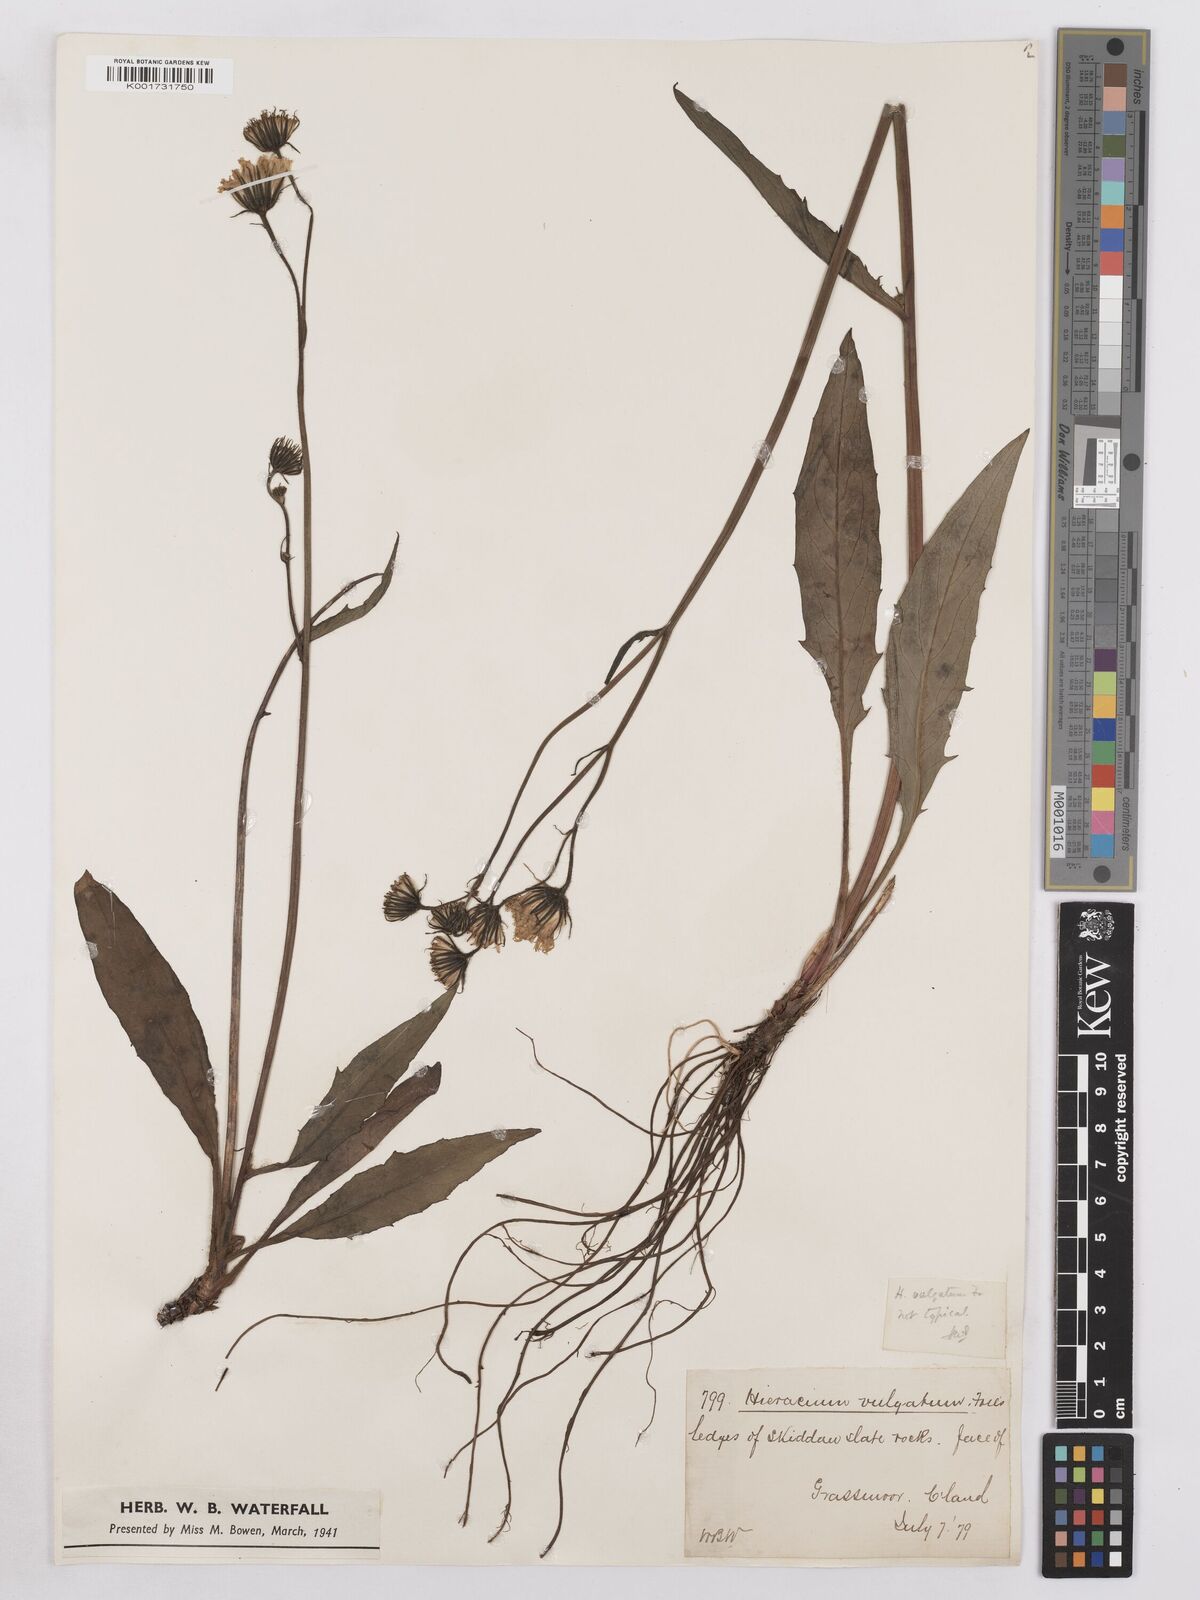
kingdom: Plantae
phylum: Tracheophyta
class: Magnoliopsida
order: Asterales
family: Asteraceae
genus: Hieracium
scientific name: Hieracium lachenalii
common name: Common hawkweed
